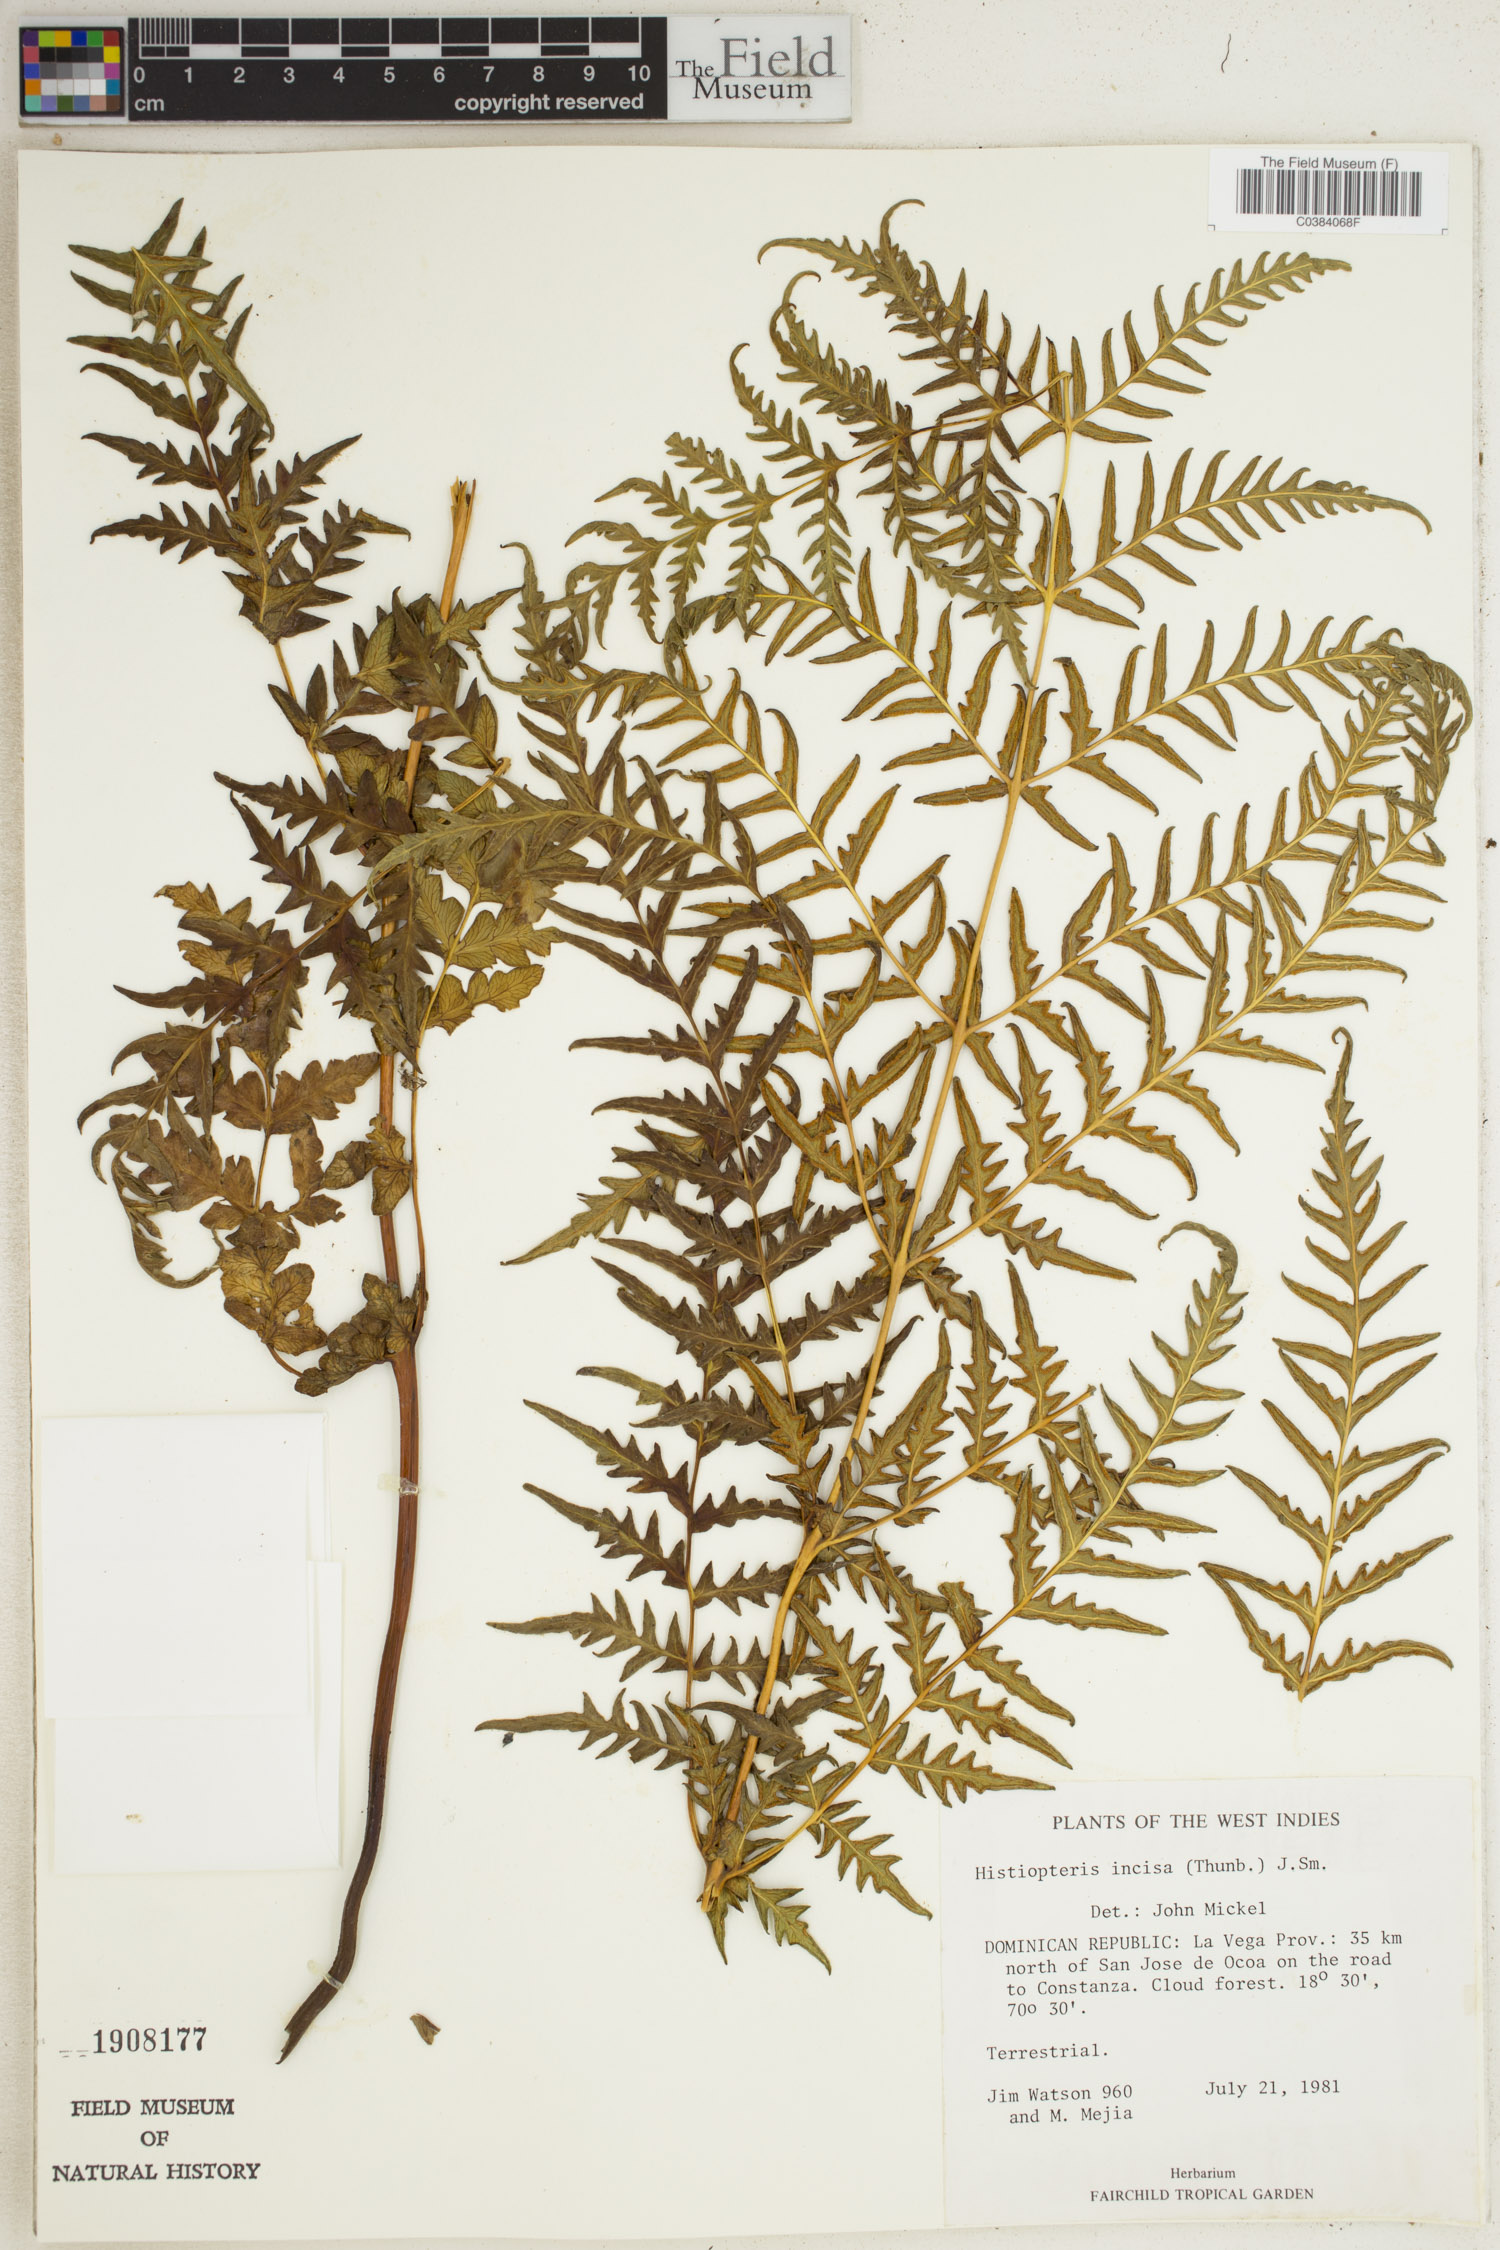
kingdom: Plantae
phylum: Tracheophyta
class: Polypodiopsida
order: Polypodiales
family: Dennstaedtiaceae
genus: Histiopteris
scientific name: Histiopteris incisa
